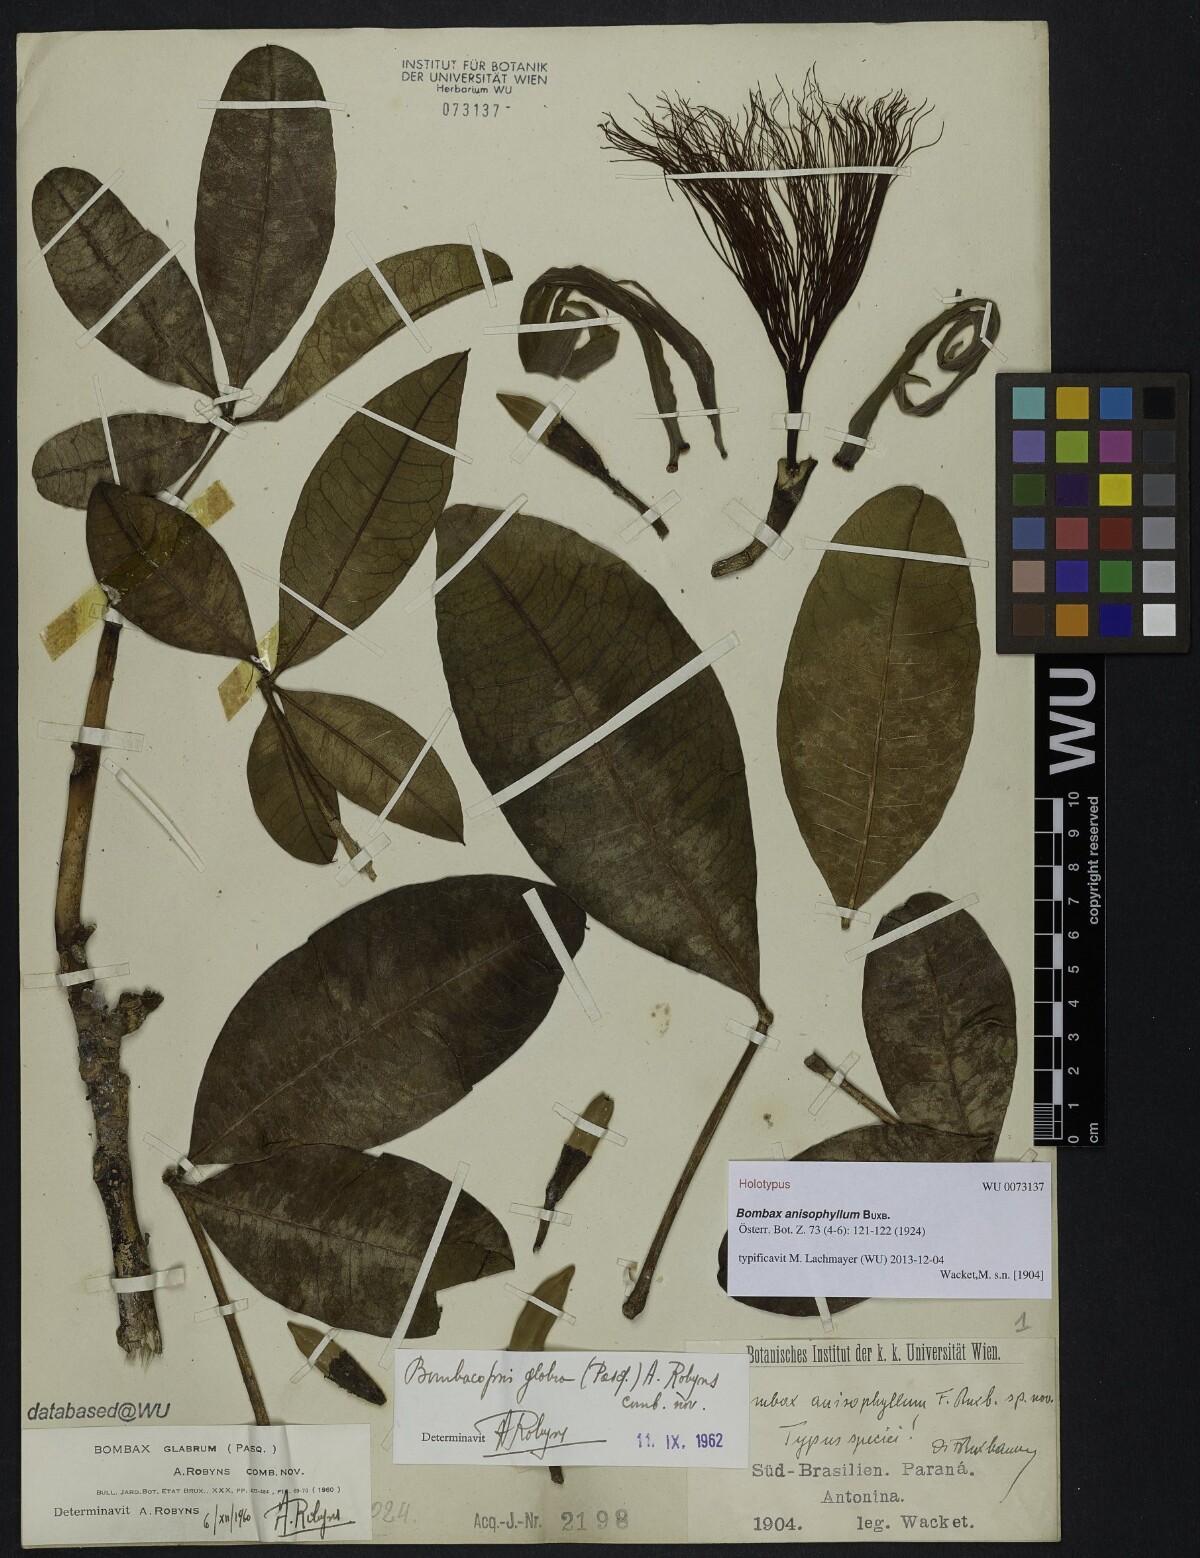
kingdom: Plantae
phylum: Tracheophyta
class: Magnoliopsida
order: Malvales
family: Malvaceae
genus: Pachira
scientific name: Pachira glabra
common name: Moneytree
